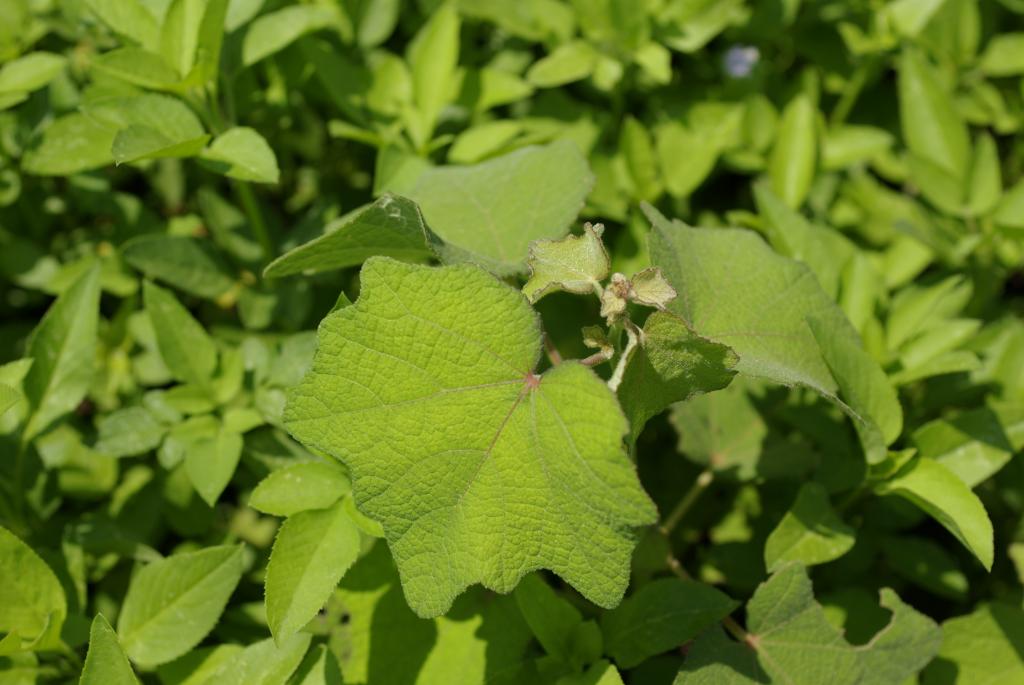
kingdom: Plantae
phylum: Tracheophyta
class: Magnoliopsida
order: Malvales
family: Malvaceae
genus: Urena
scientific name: Urena lobata
